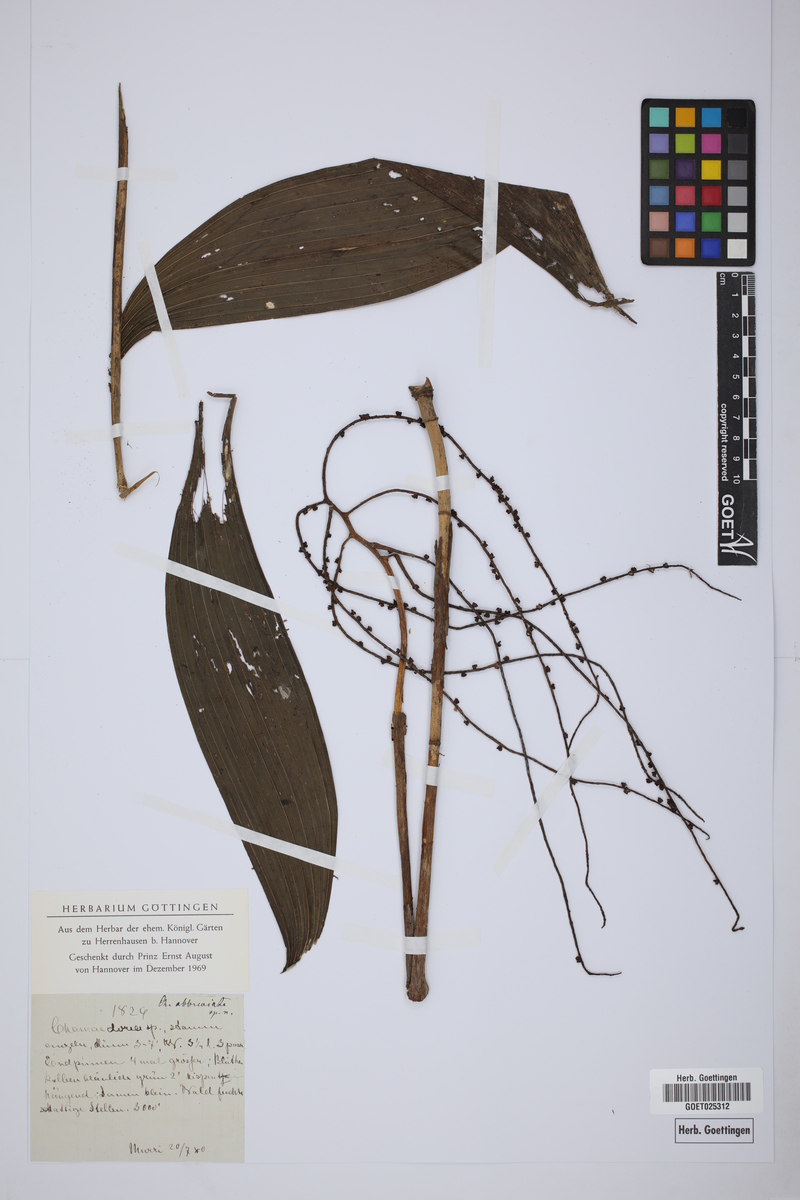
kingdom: Plantae
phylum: Tracheophyta
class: Liliopsida
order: Arecales
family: Arecaceae
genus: Chamaedorea
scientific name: Chamaedorea
